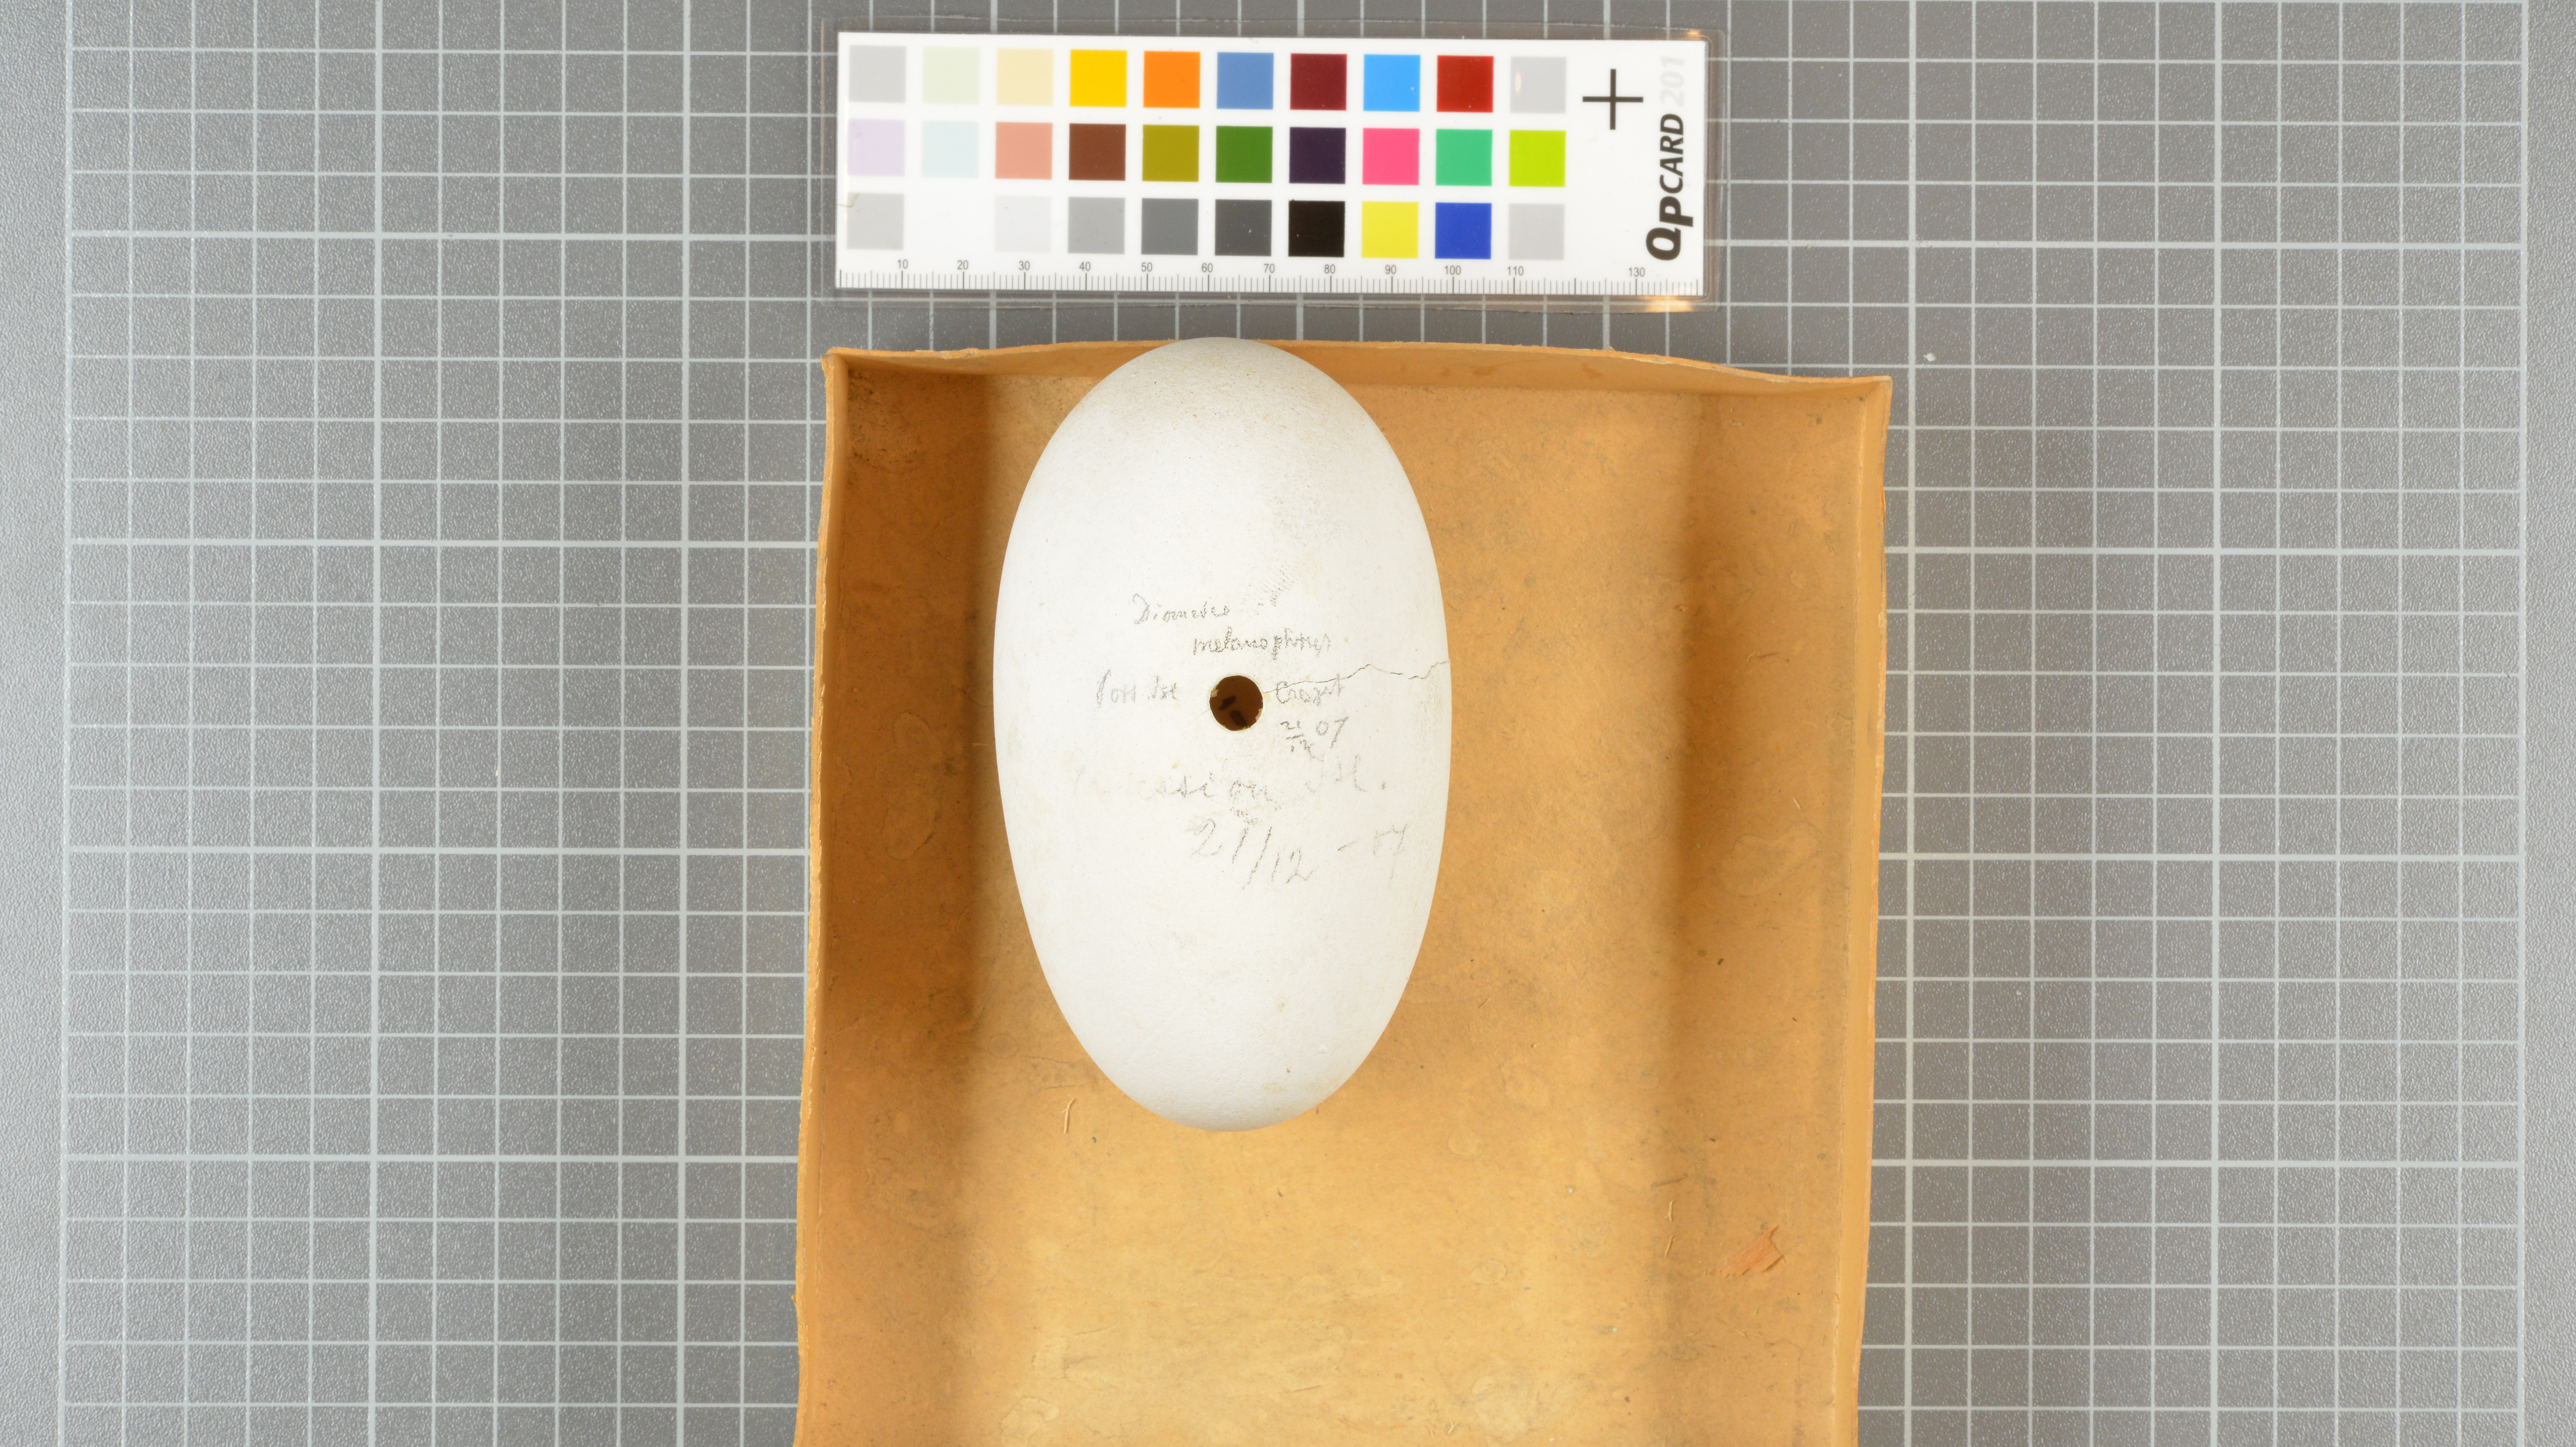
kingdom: Animalia
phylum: Chordata
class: Aves
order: Procellariiformes
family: Diomedeidae
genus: Thalassarche
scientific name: Thalassarche melanophris
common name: Black-browed albatross
